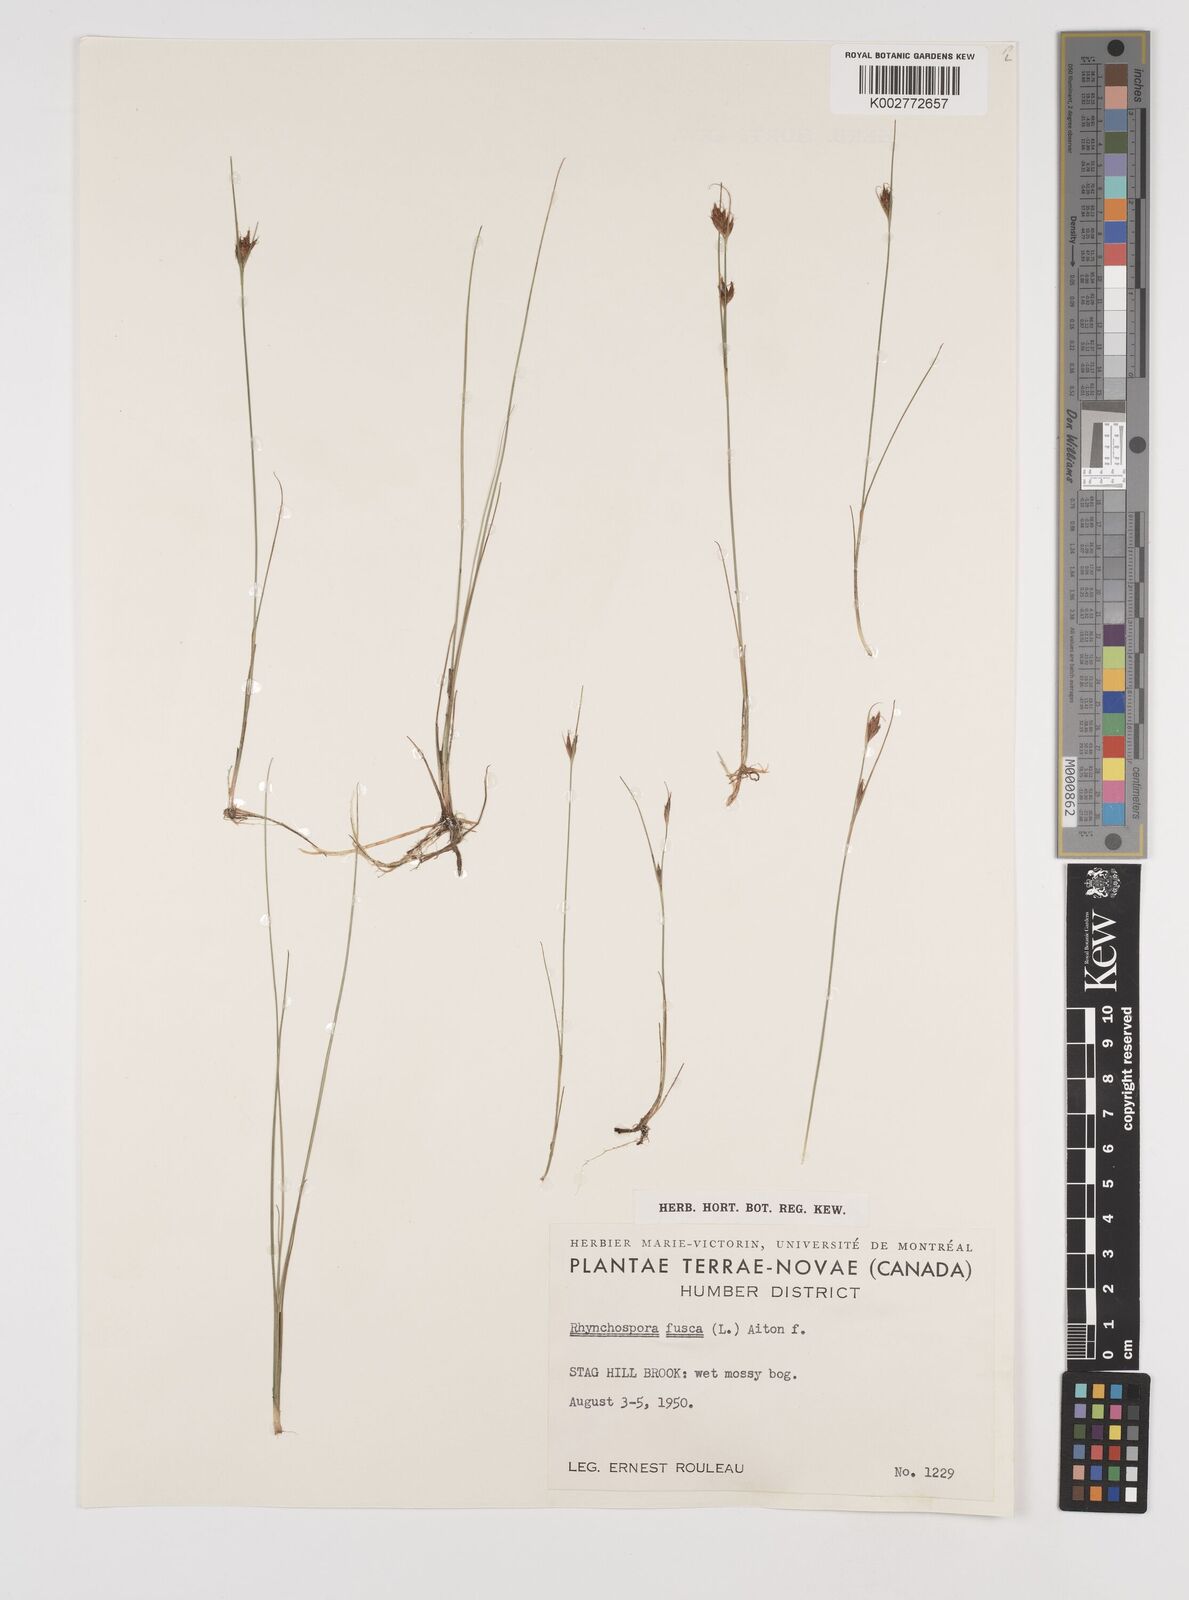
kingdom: Plantae
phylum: Tracheophyta
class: Liliopsida
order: Poales
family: Cyperaceae
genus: Rhynchospora
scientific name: Rhynchospora fusca
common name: Brown beak-sedge
